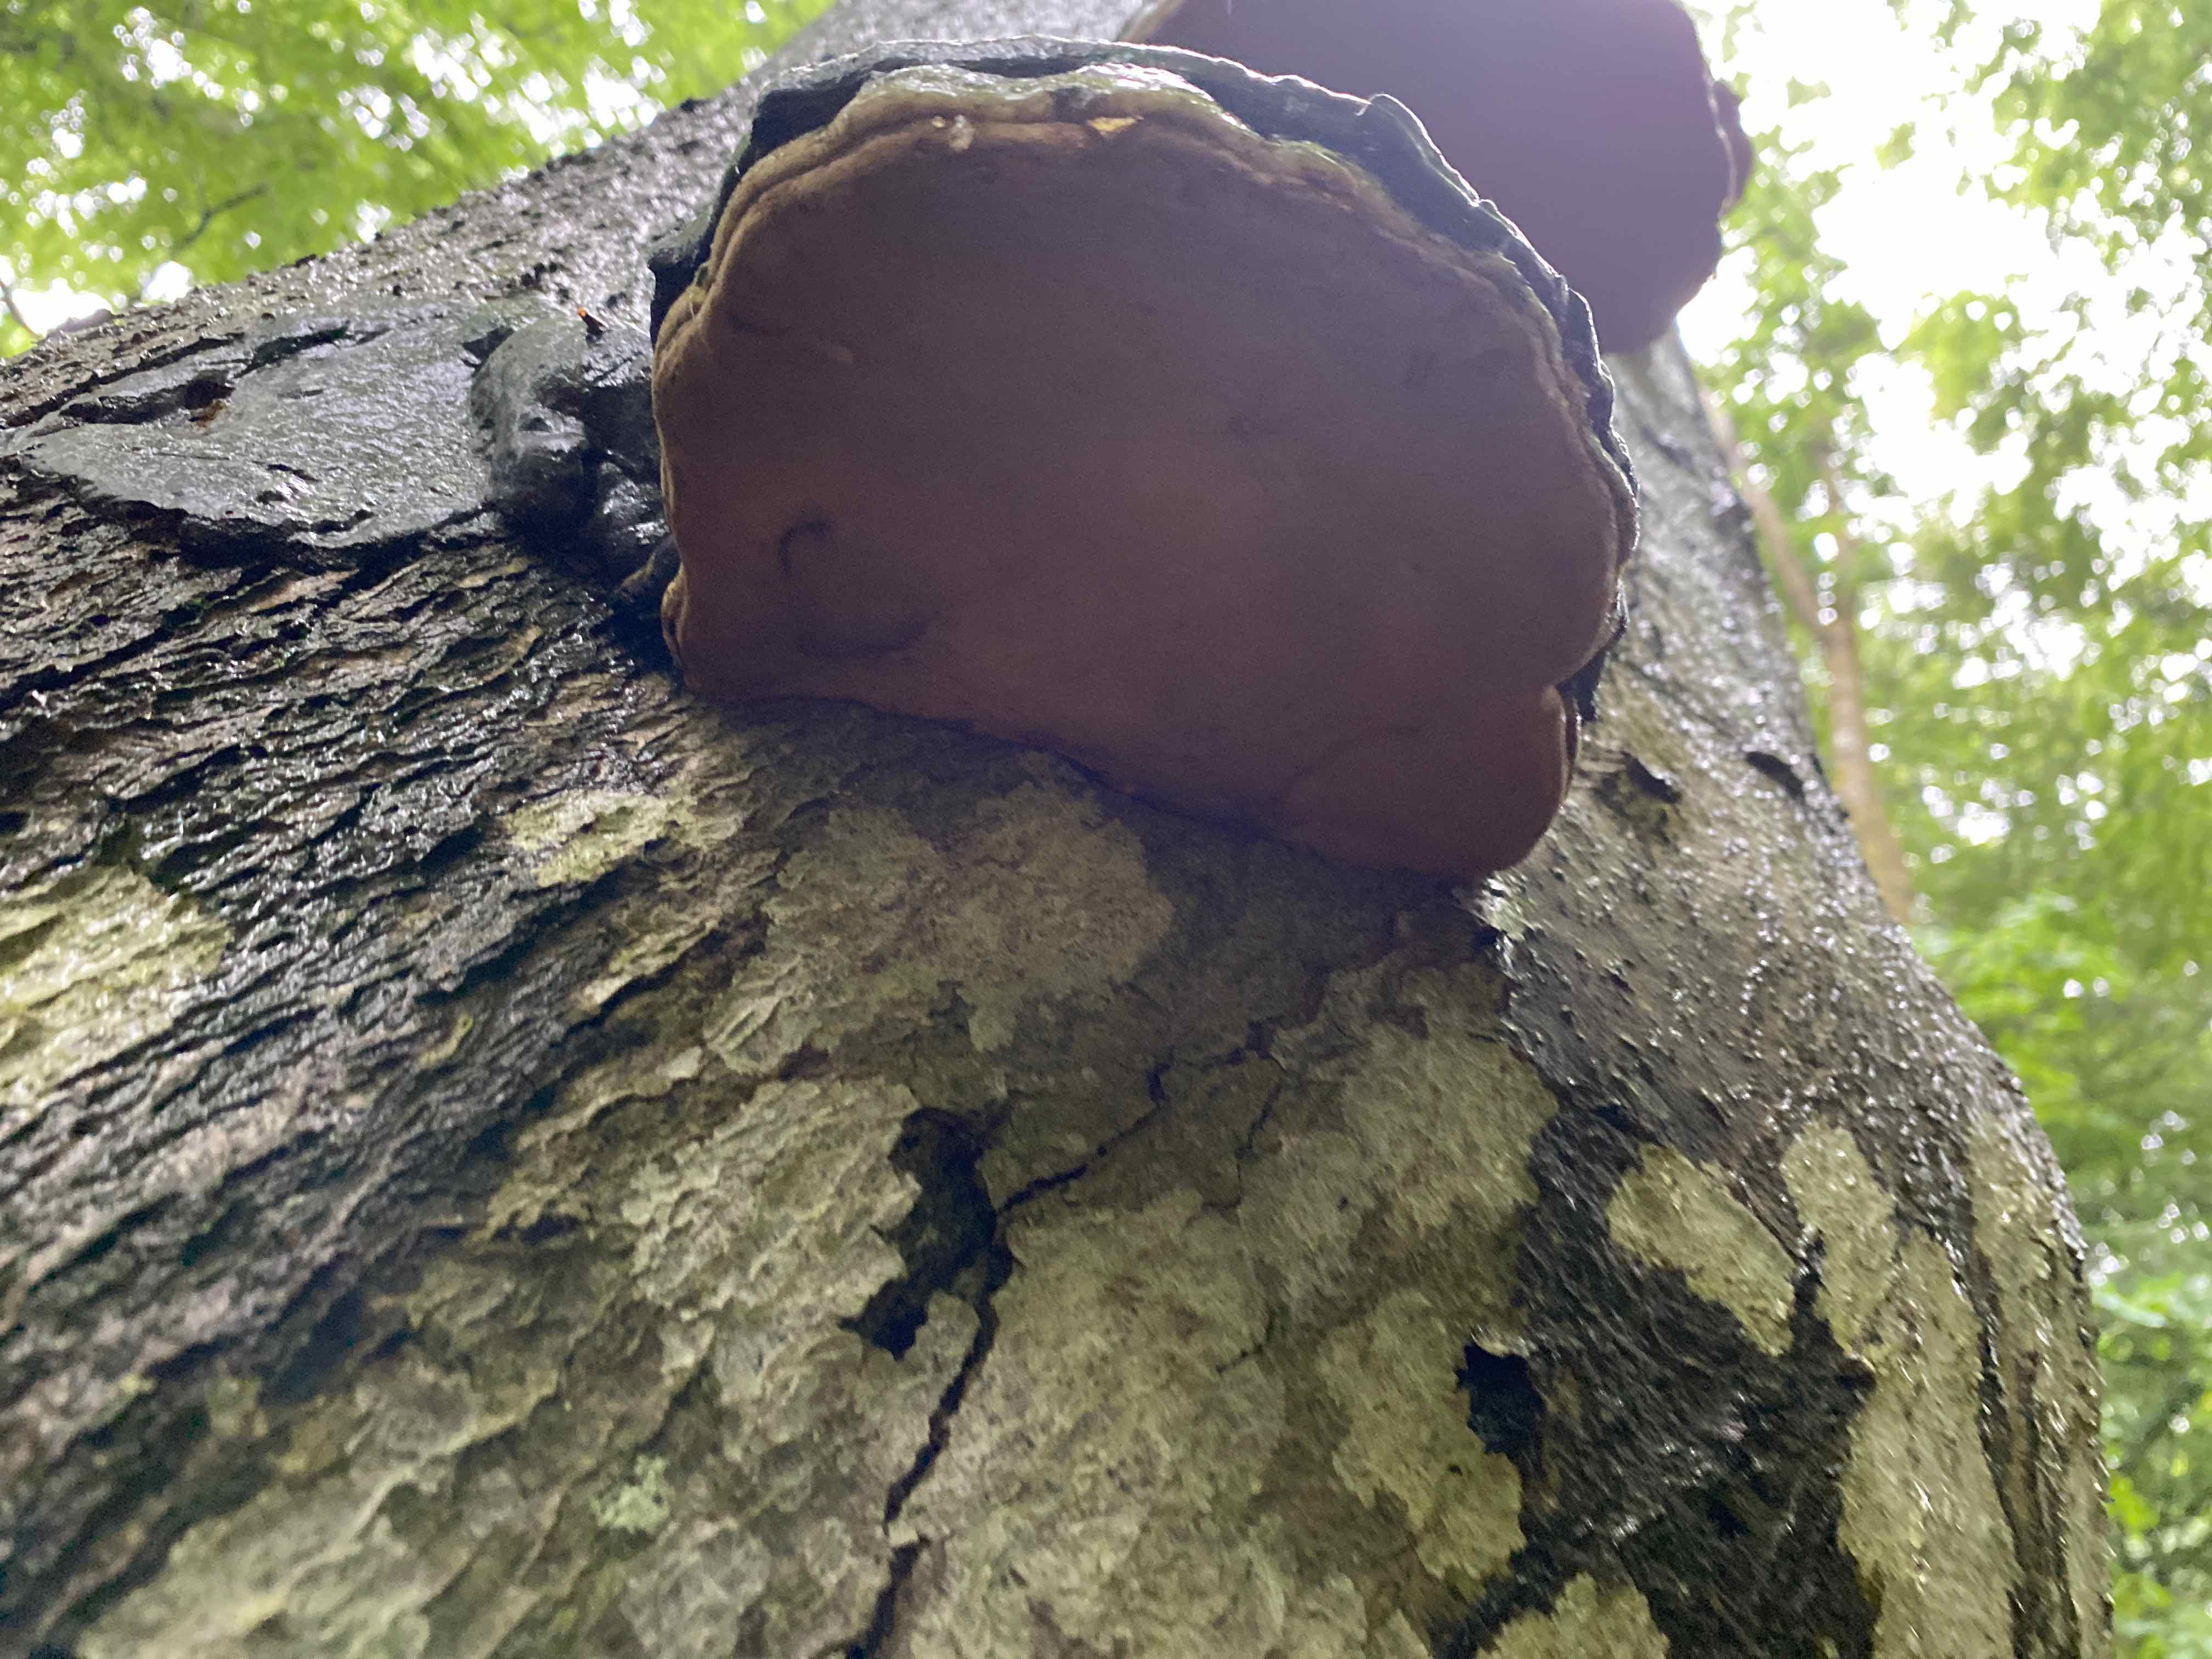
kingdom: Fungi
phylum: Basidiomycota
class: Agaricomycetes
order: Polyporales
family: Polyporaceae
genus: Fomes
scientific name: Fomes fomentarius
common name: tøndersvamp
